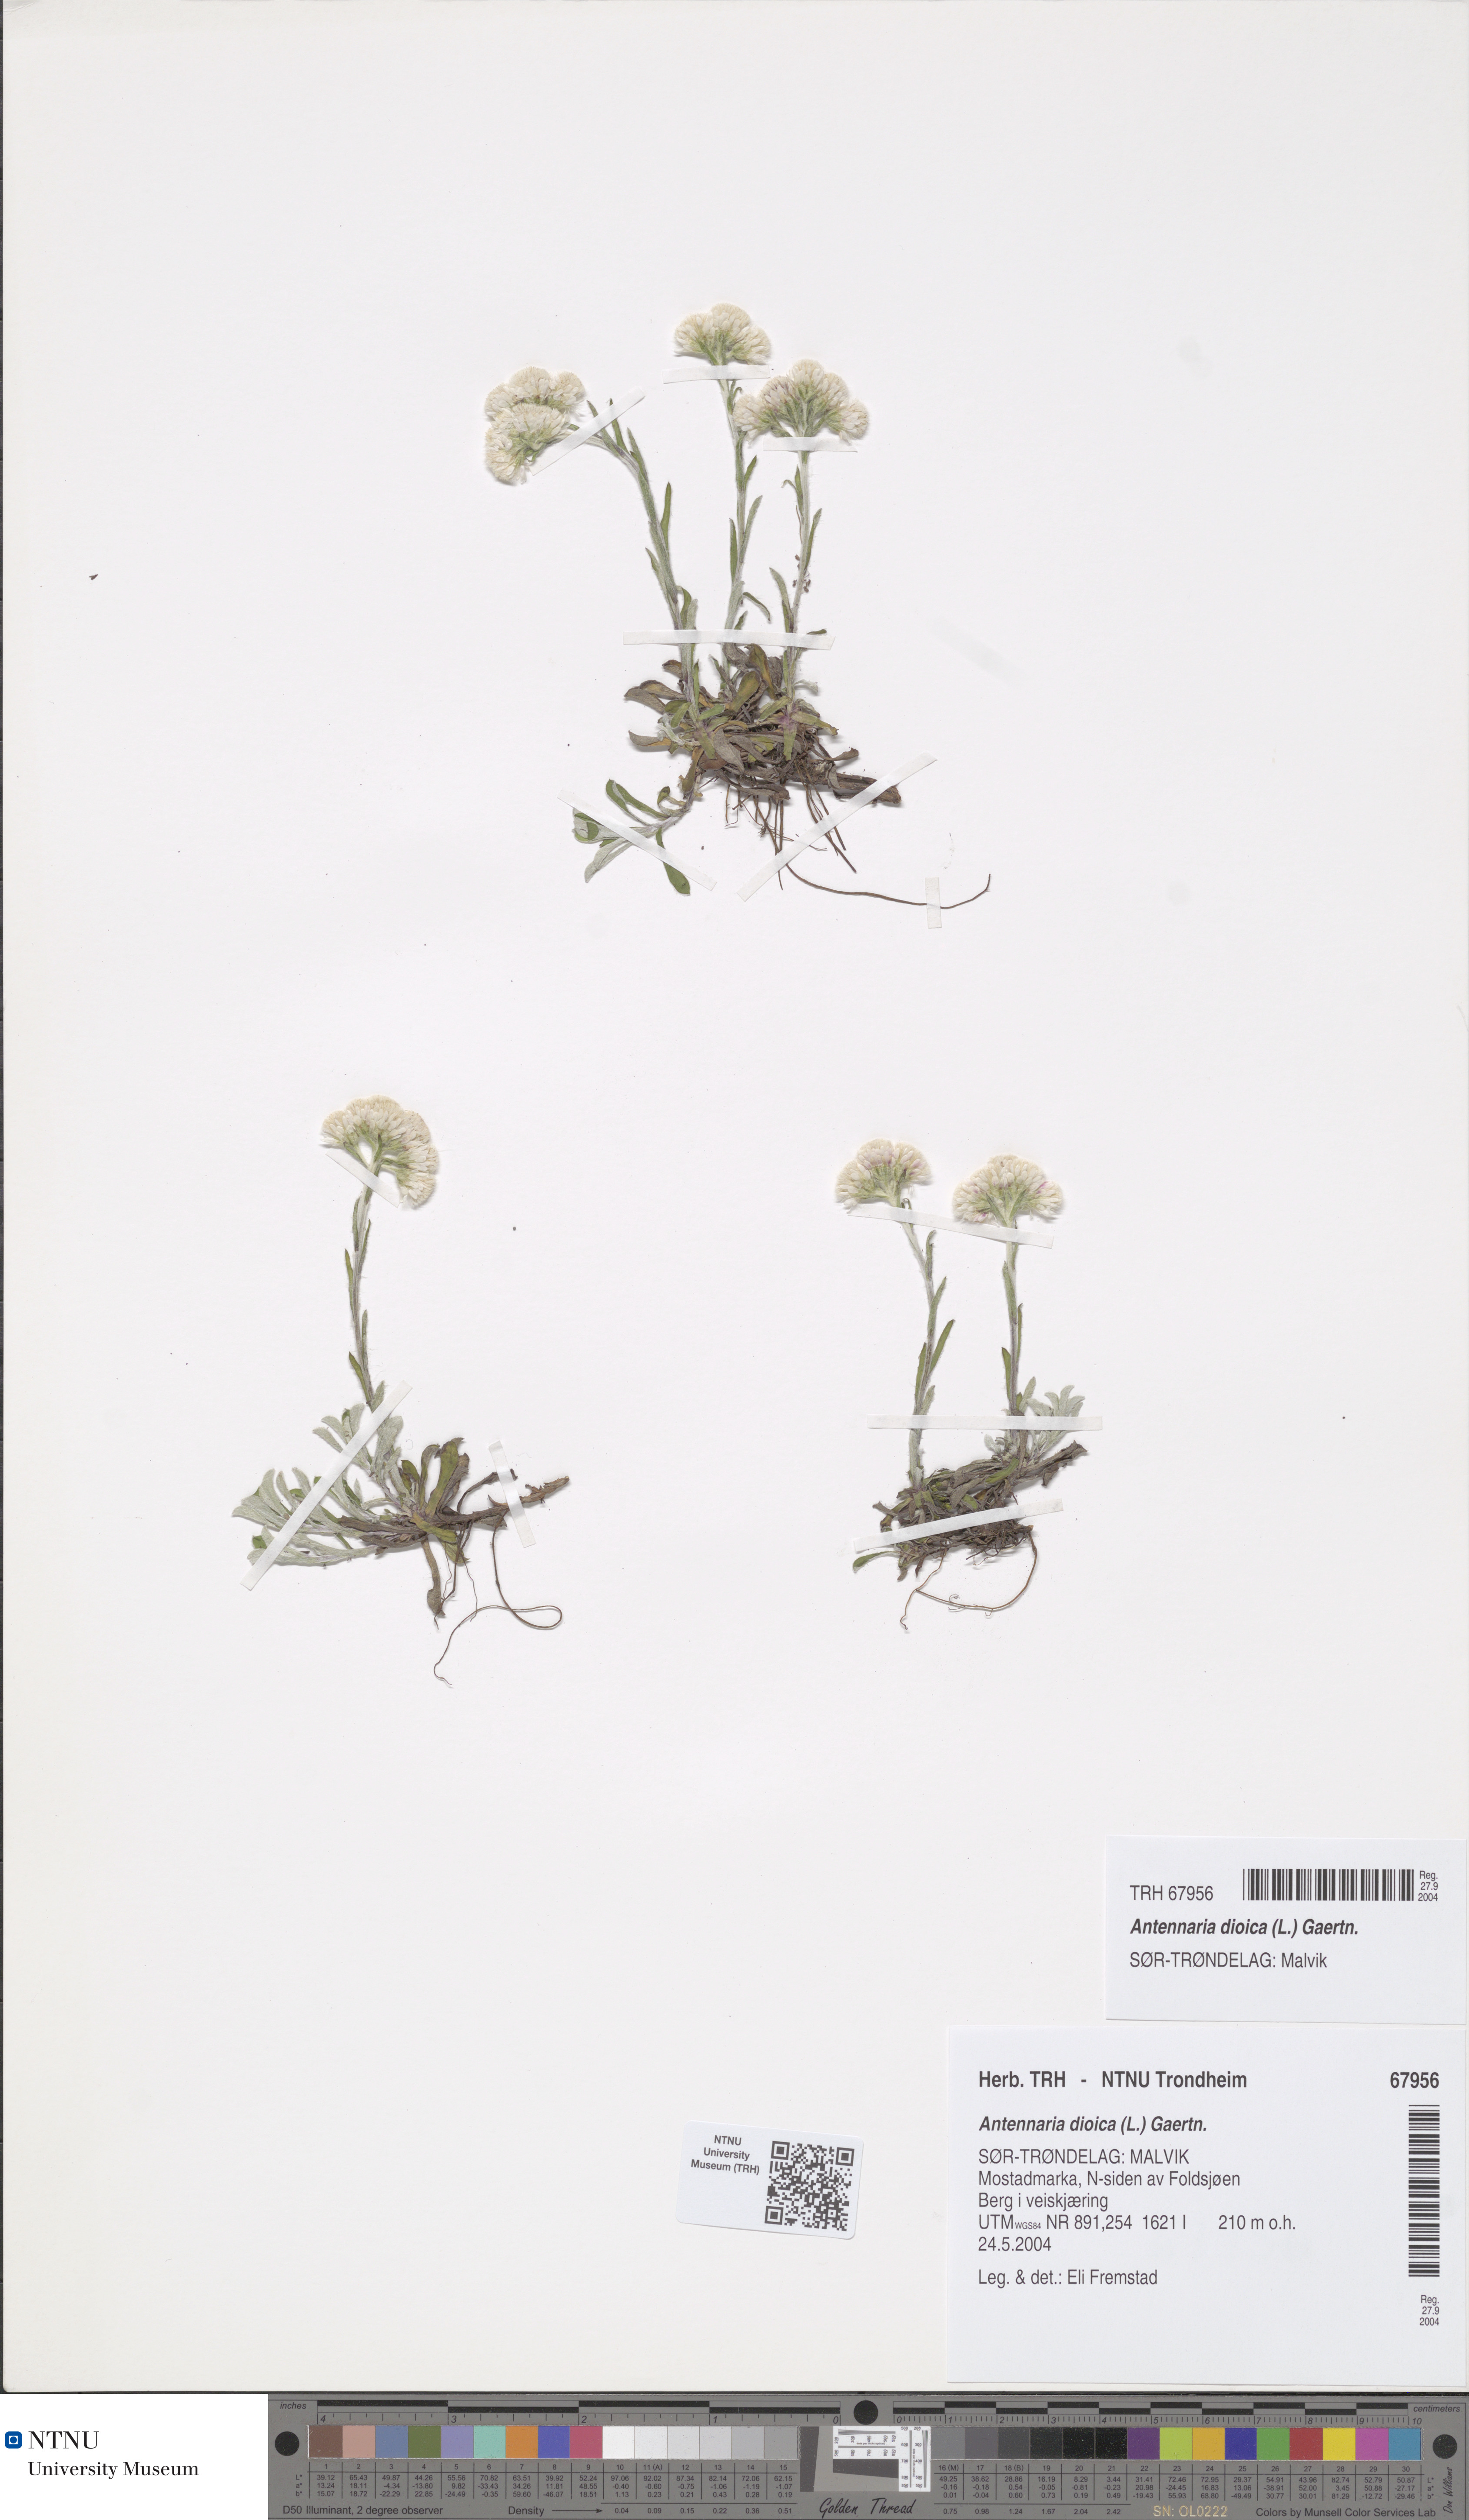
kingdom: Plantae
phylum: Tracheophyta
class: Magnoliopsida
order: Asterales
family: Asteraceae
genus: Antennaria
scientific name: Antennaria dioica
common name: Mountain everlasting
